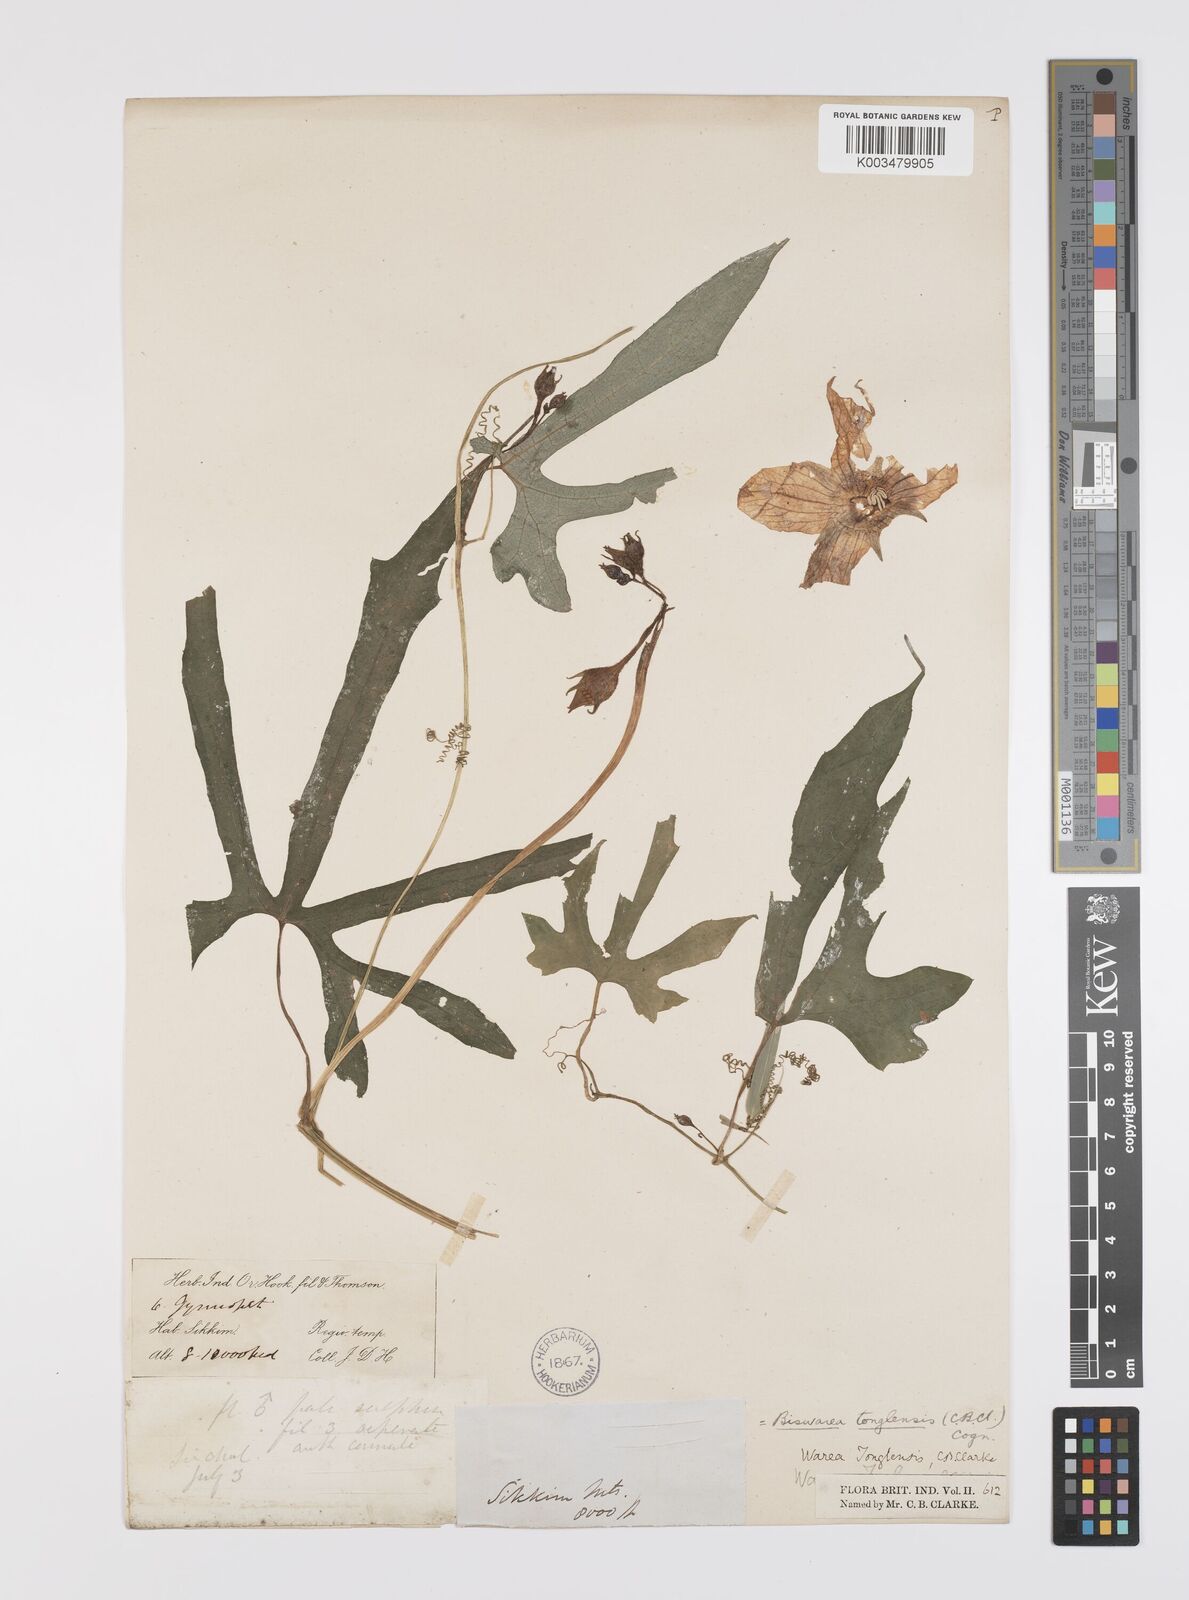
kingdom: Plantae
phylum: Tracheophyta
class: Magnoliopsida
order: Cucurbitales
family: Cucurbitaceae
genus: Benincasa
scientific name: Benincasa
